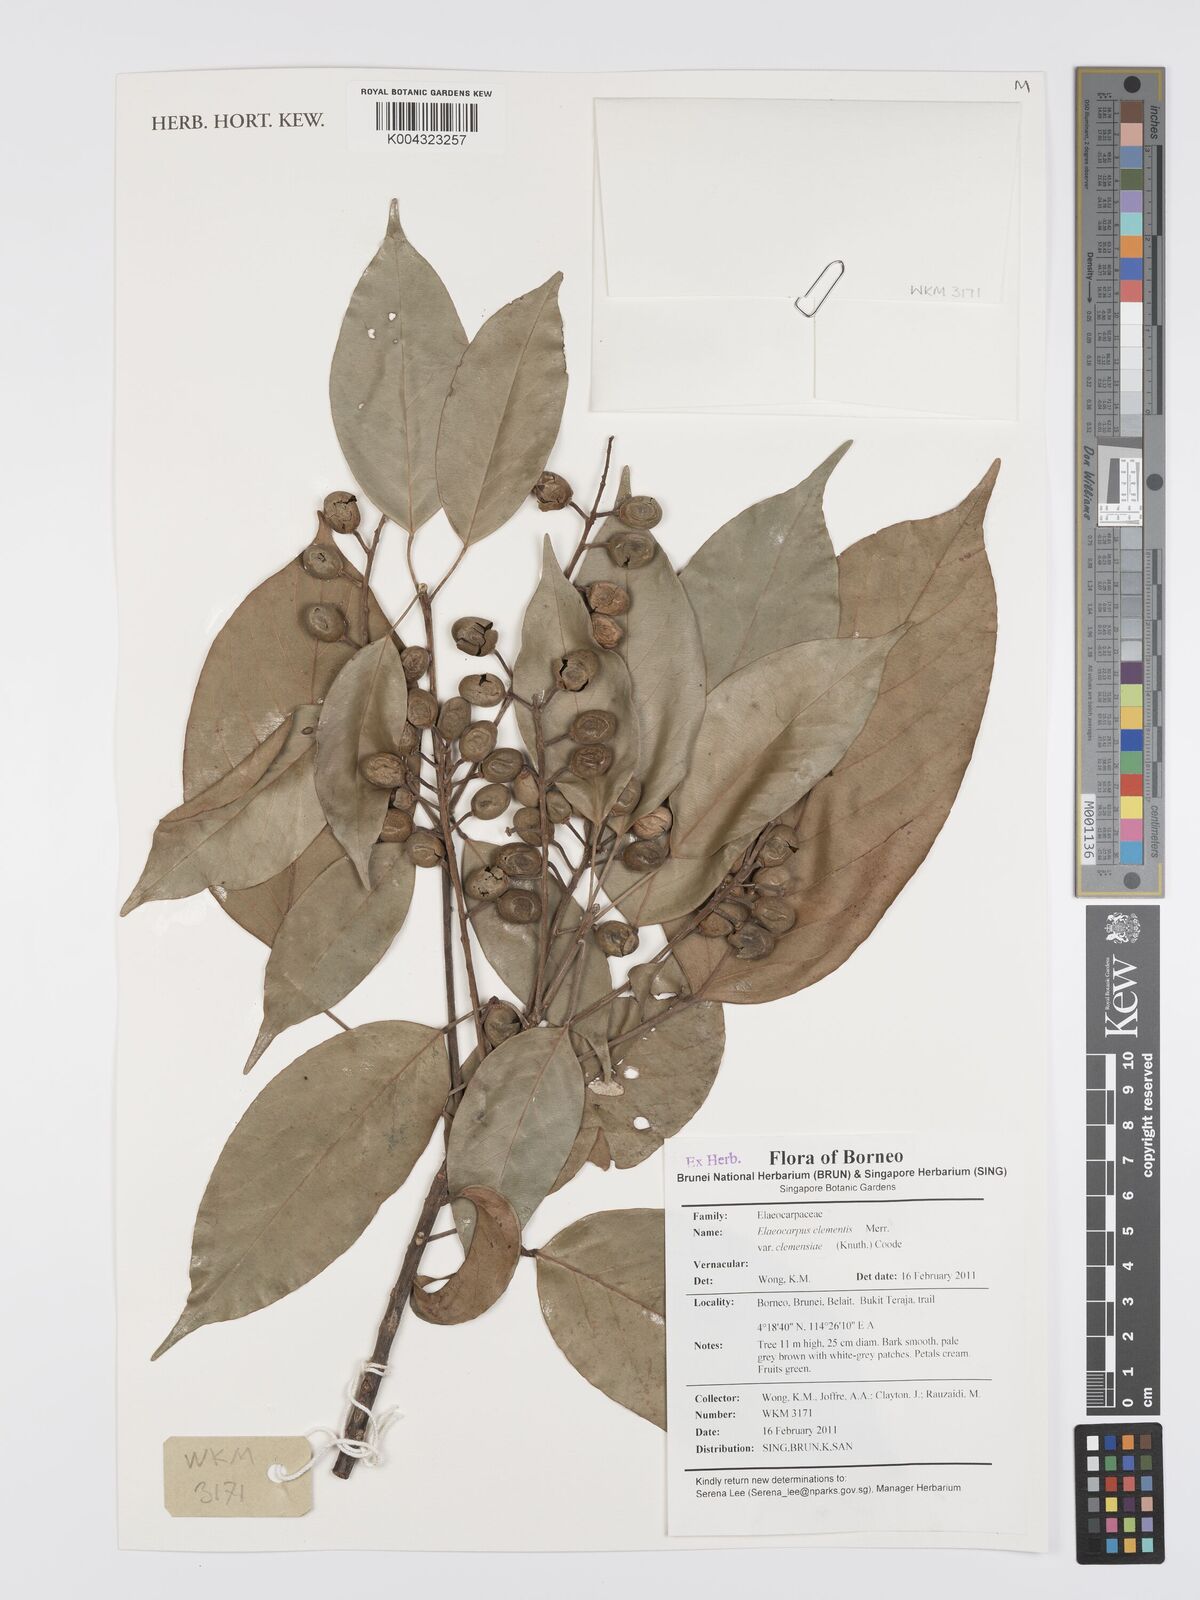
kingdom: Plantae
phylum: Tracheophyta
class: Magnoliopsida
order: Oxalidales
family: Elaeocarpaceae
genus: Elaeocarpus
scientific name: Elaeocarpus clementis
